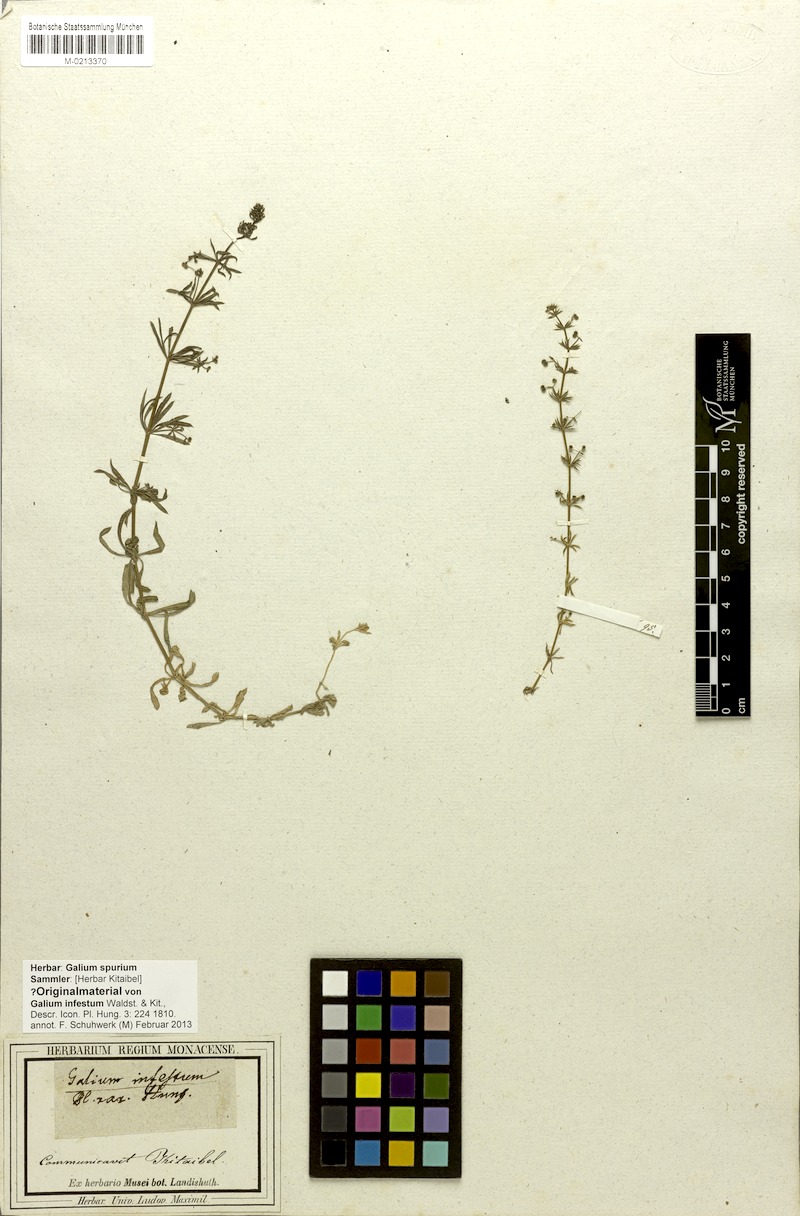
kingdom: Plantae
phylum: Tracheophyta
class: Magnoliopsida
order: Gentianales
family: Rubiaceae
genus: Galium
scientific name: Galium spurium
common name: False cleavers
